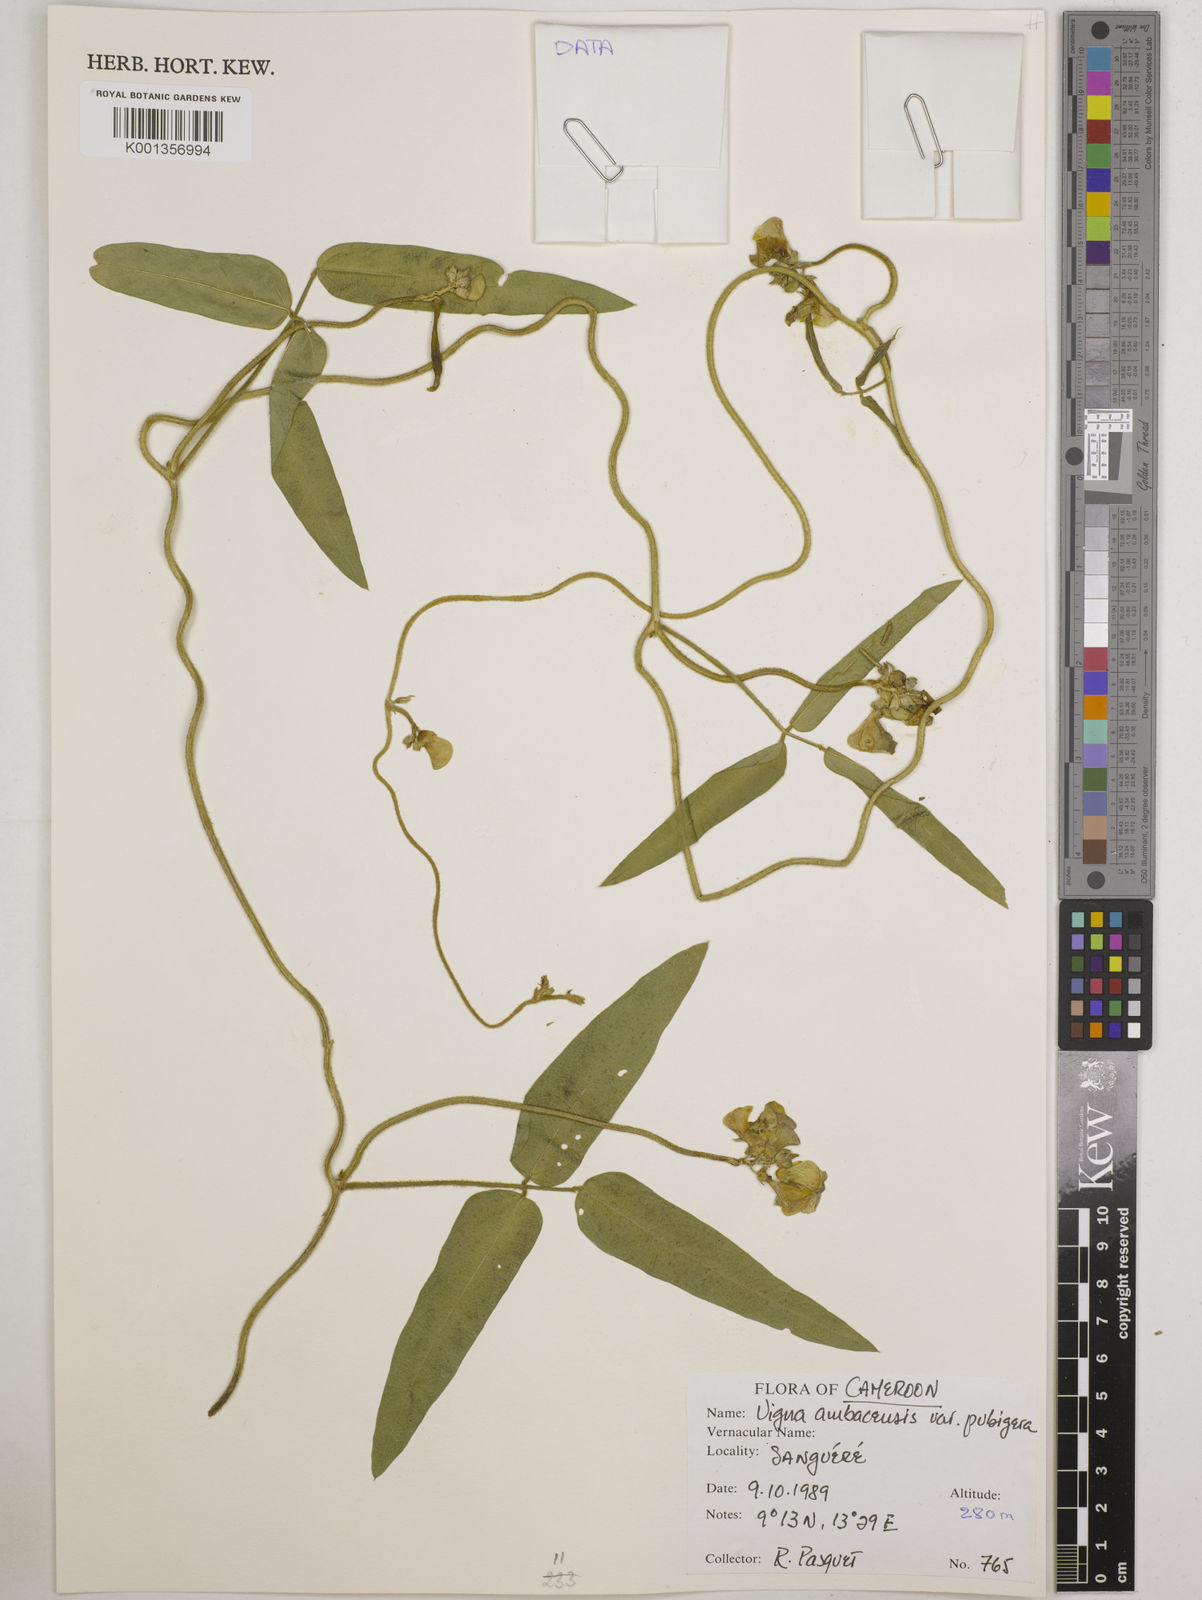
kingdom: Plantae
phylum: Tracheophyta
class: Magnoliopsida
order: Fabales
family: Fabaceae
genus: Vigna
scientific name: Vigna pubigera
